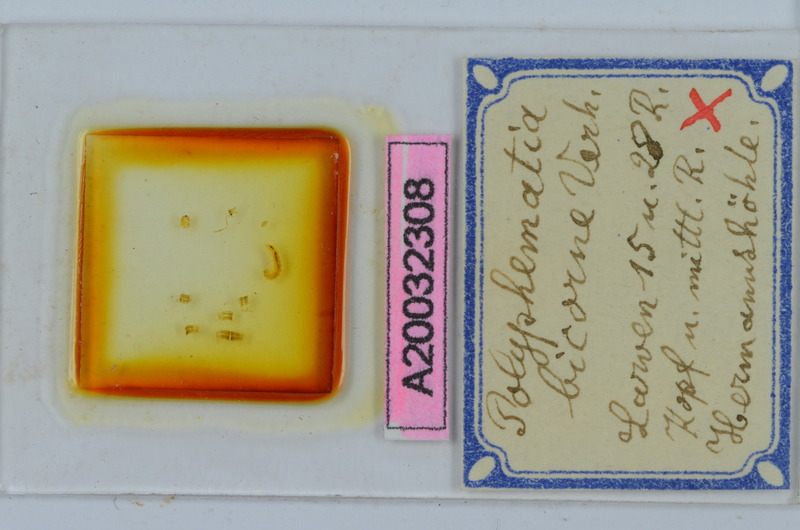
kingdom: Animalia
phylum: Arthropoda
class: Diplopoda
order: Chordeumatida
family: Attemsiidae
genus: Polyphematia
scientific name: Polyphematia moniliformis
